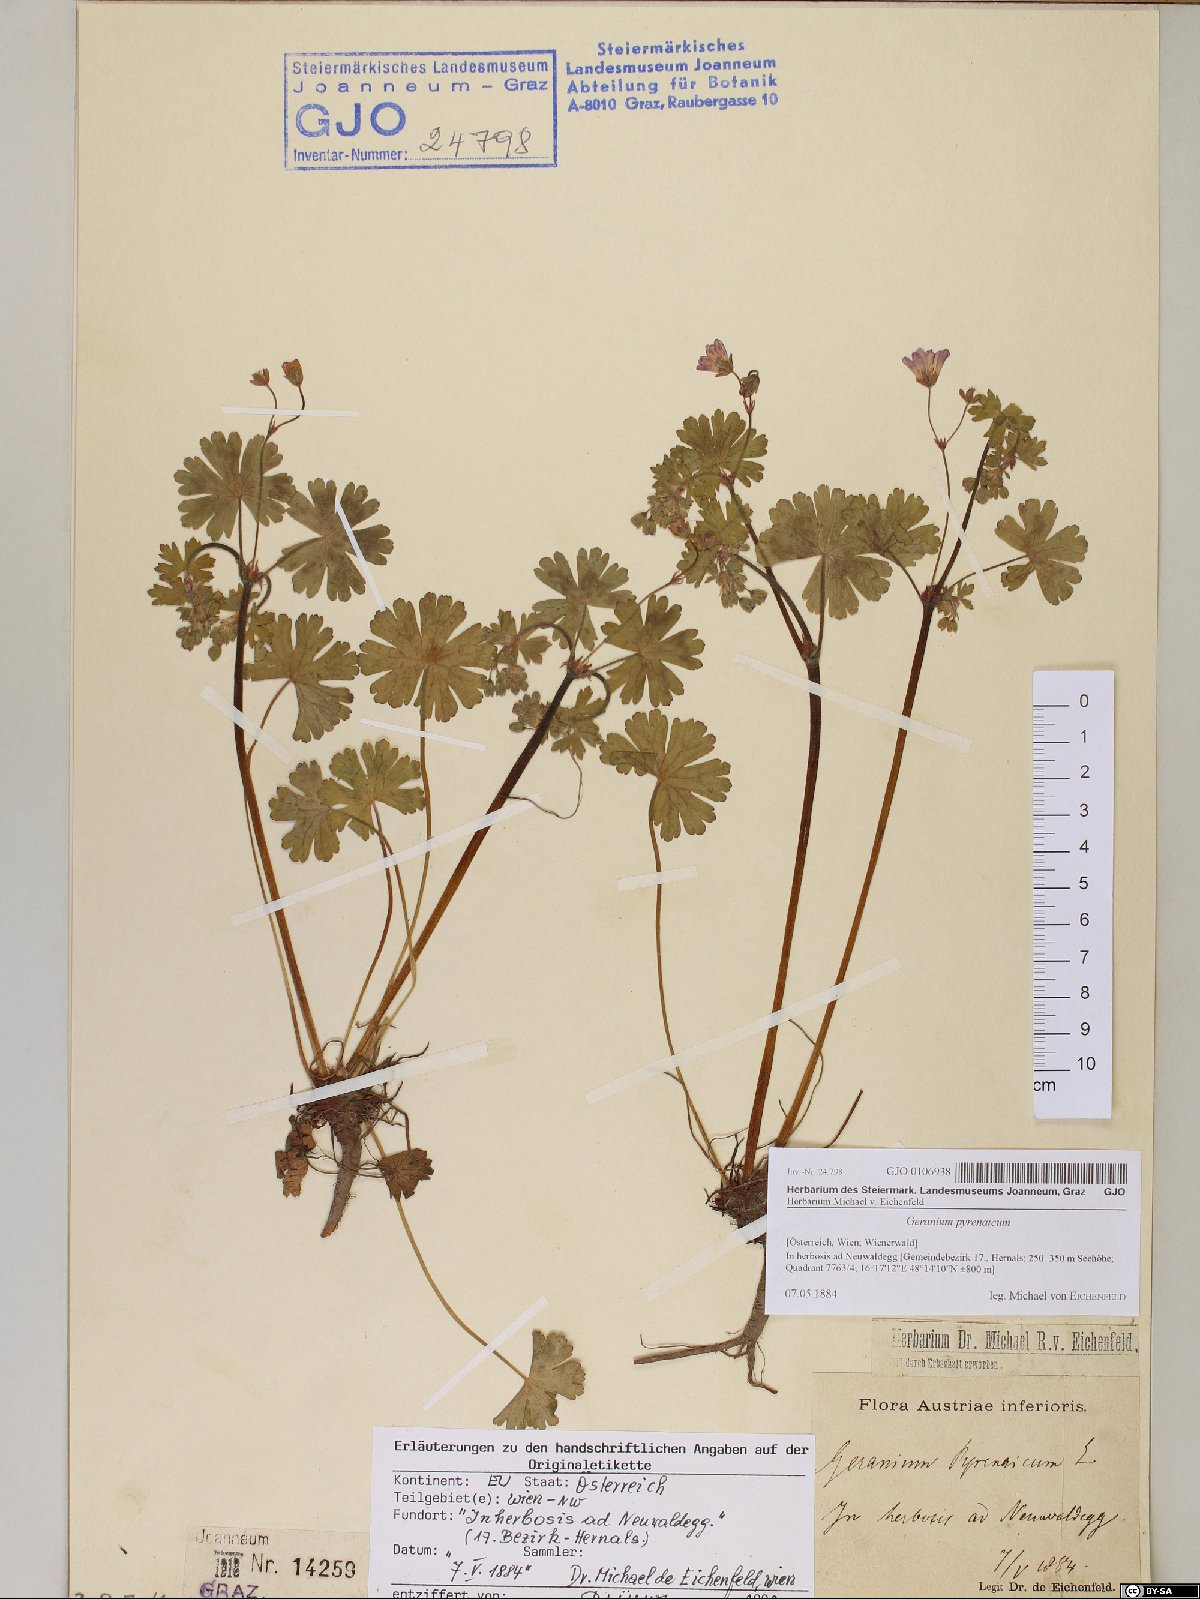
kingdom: Plantae
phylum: Tracheophyta
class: Magnoliopsida
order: Geraniales
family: Geraniaceae
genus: Geranium
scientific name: Geranium pyrenaicum
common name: Hedgerow crane's-bill
